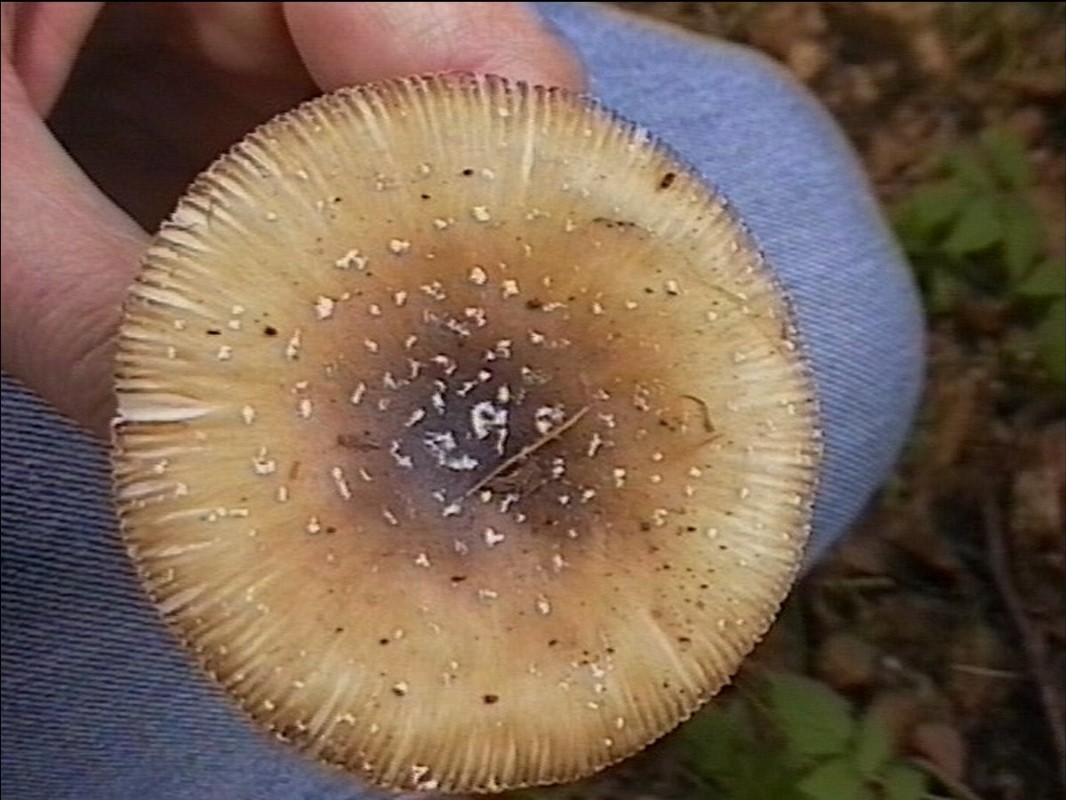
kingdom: Fungi
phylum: Basidiomycota
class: Agaricomycetes
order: Agaricales
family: Amanitaceae
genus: Amanita
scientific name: Amanita pantherina
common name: panter-fluesvamp
